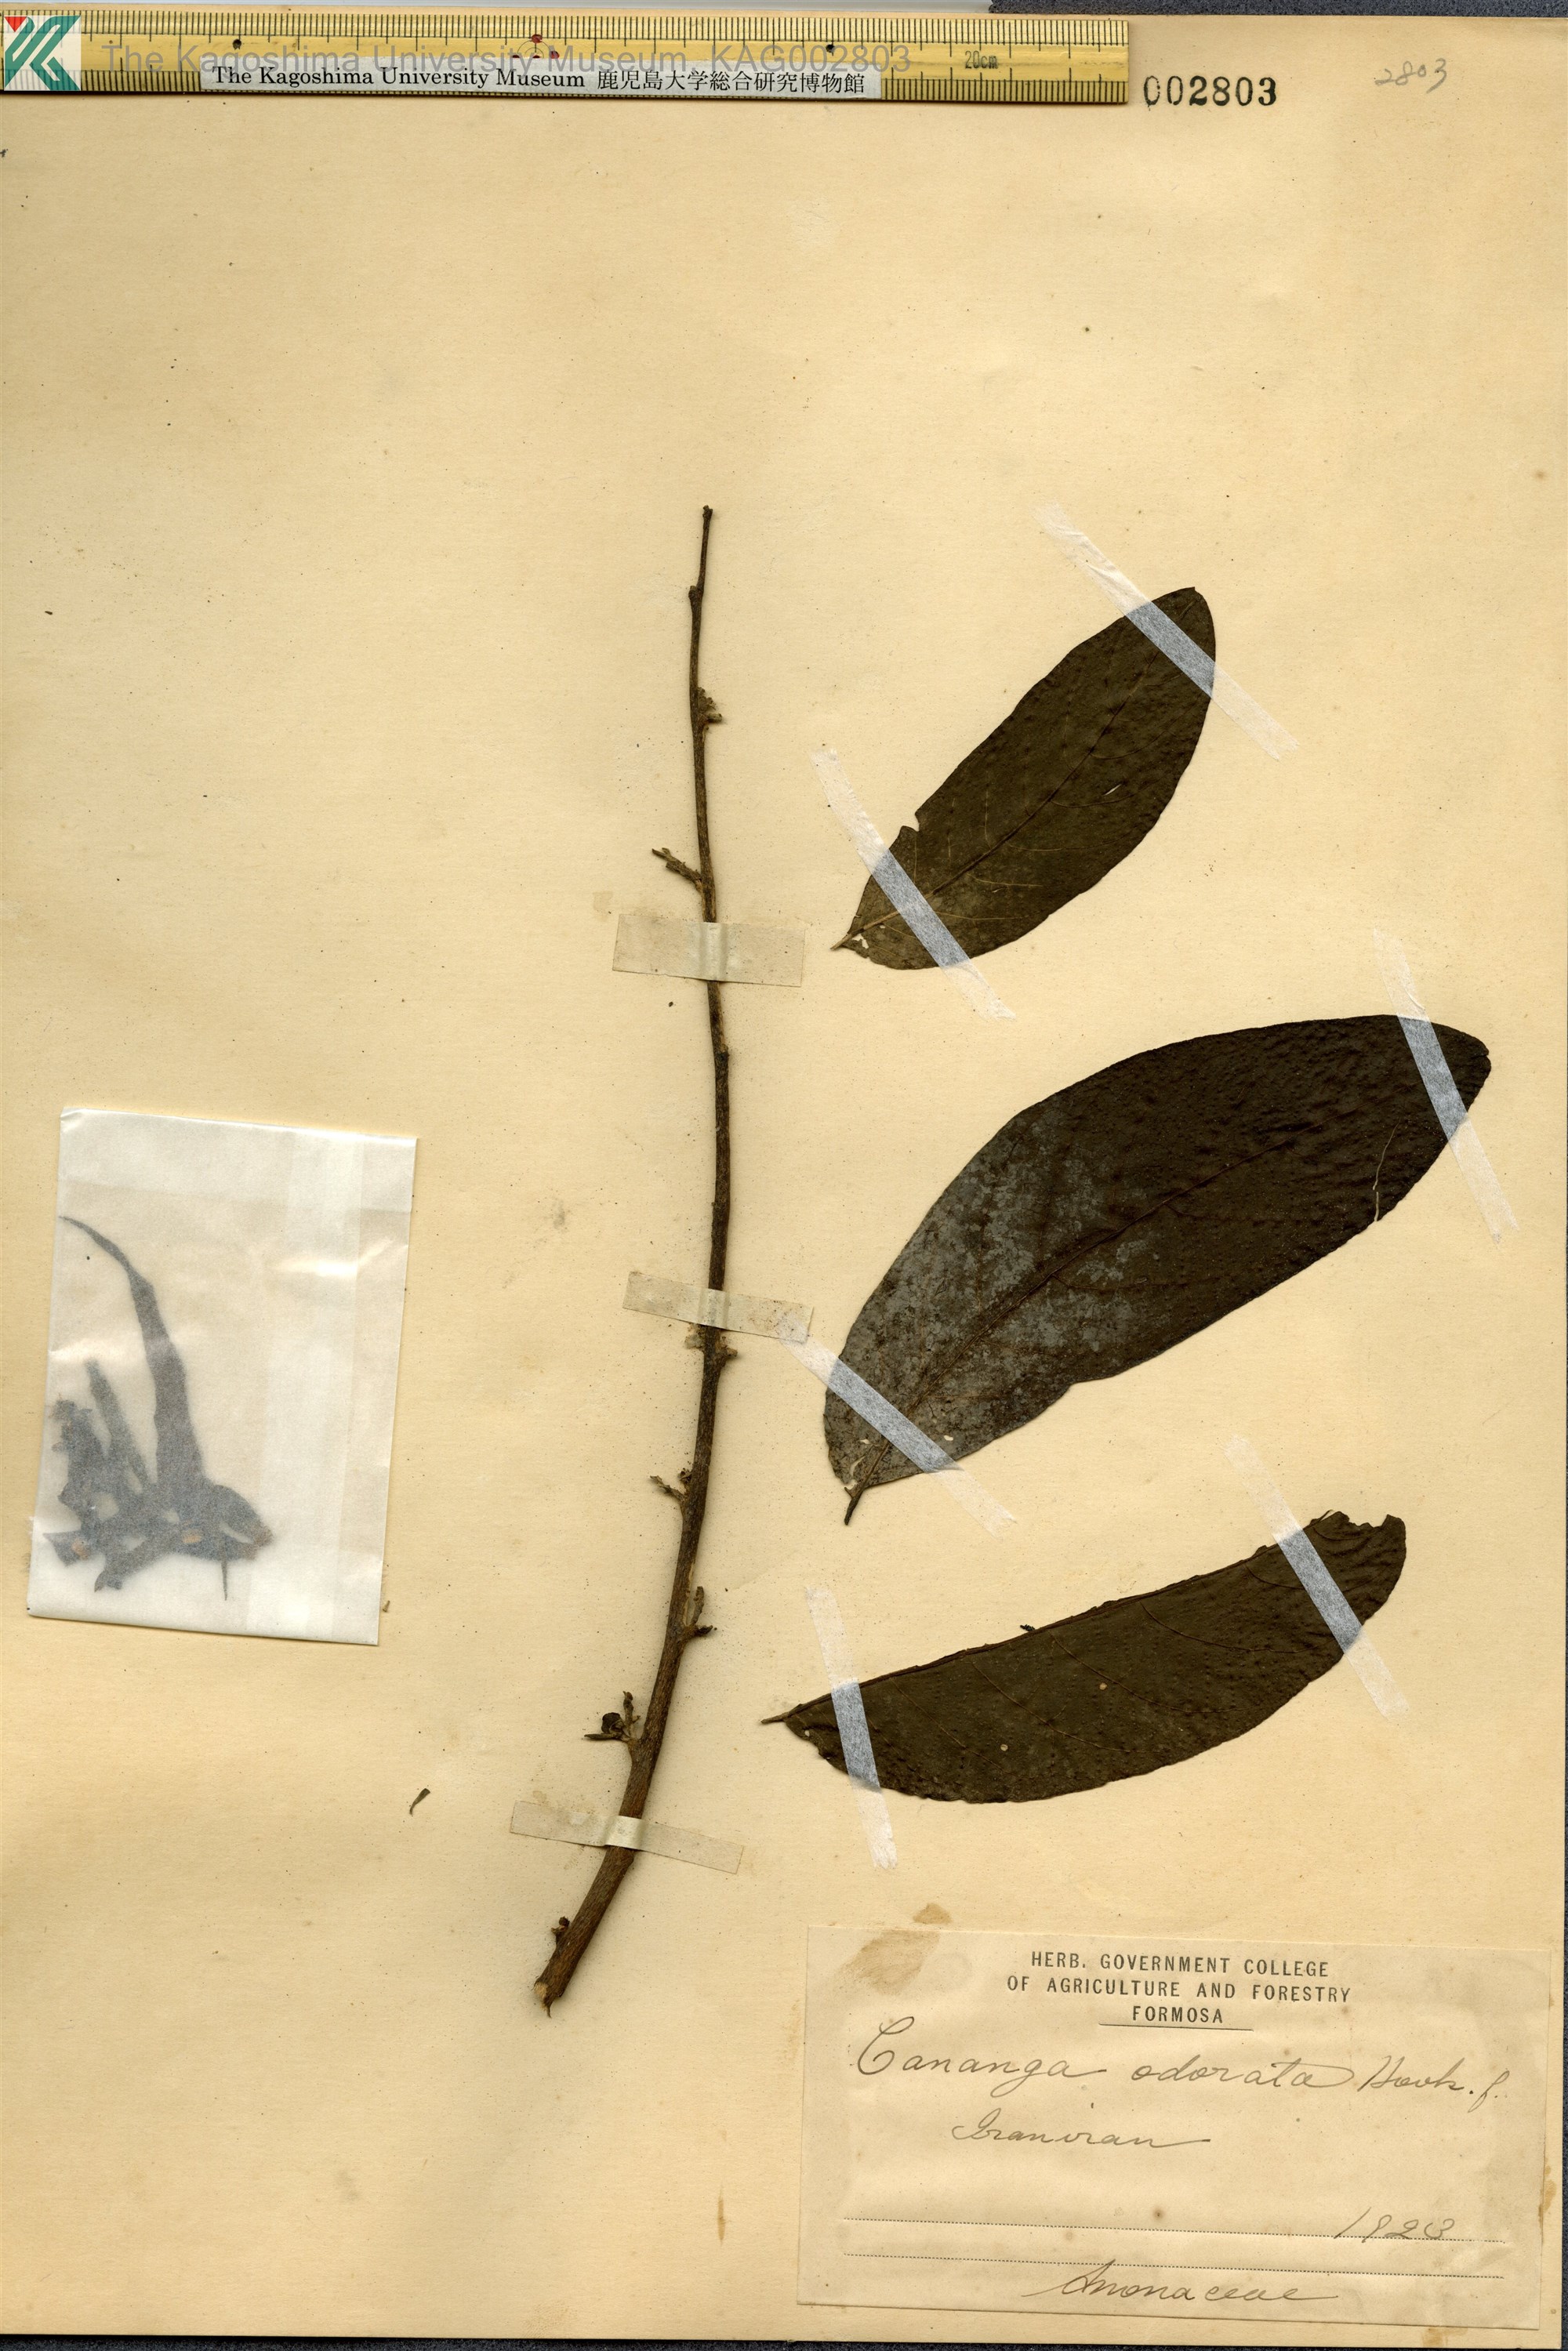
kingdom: Plantae
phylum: Tracheophyta
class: Magnoliopsida
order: Magnoliales
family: Annonaceae
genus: Cananga
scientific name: Cananga odorata
